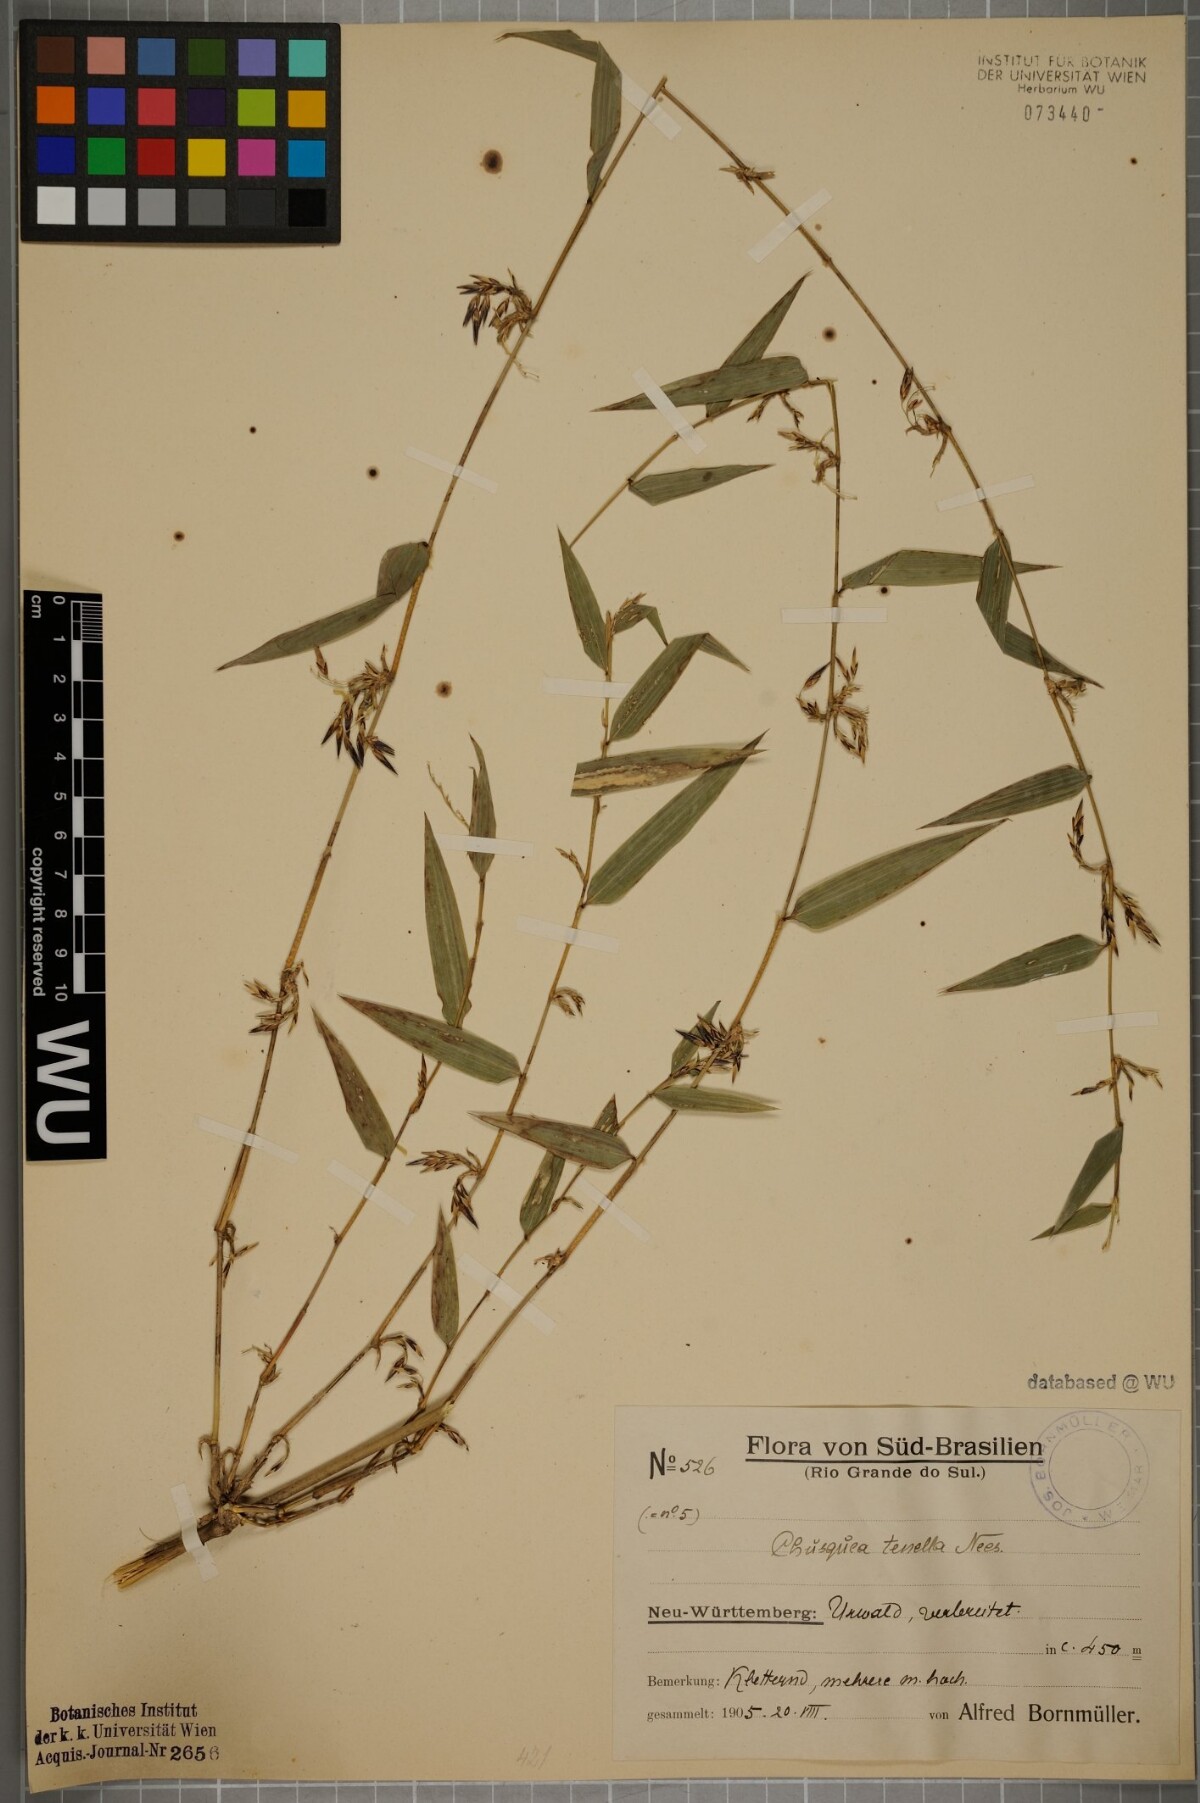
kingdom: Plantae
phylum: Tracheophyta
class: Liliopsida
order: Poales
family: Poaceae
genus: Chusquea
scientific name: Chusquea tenella
